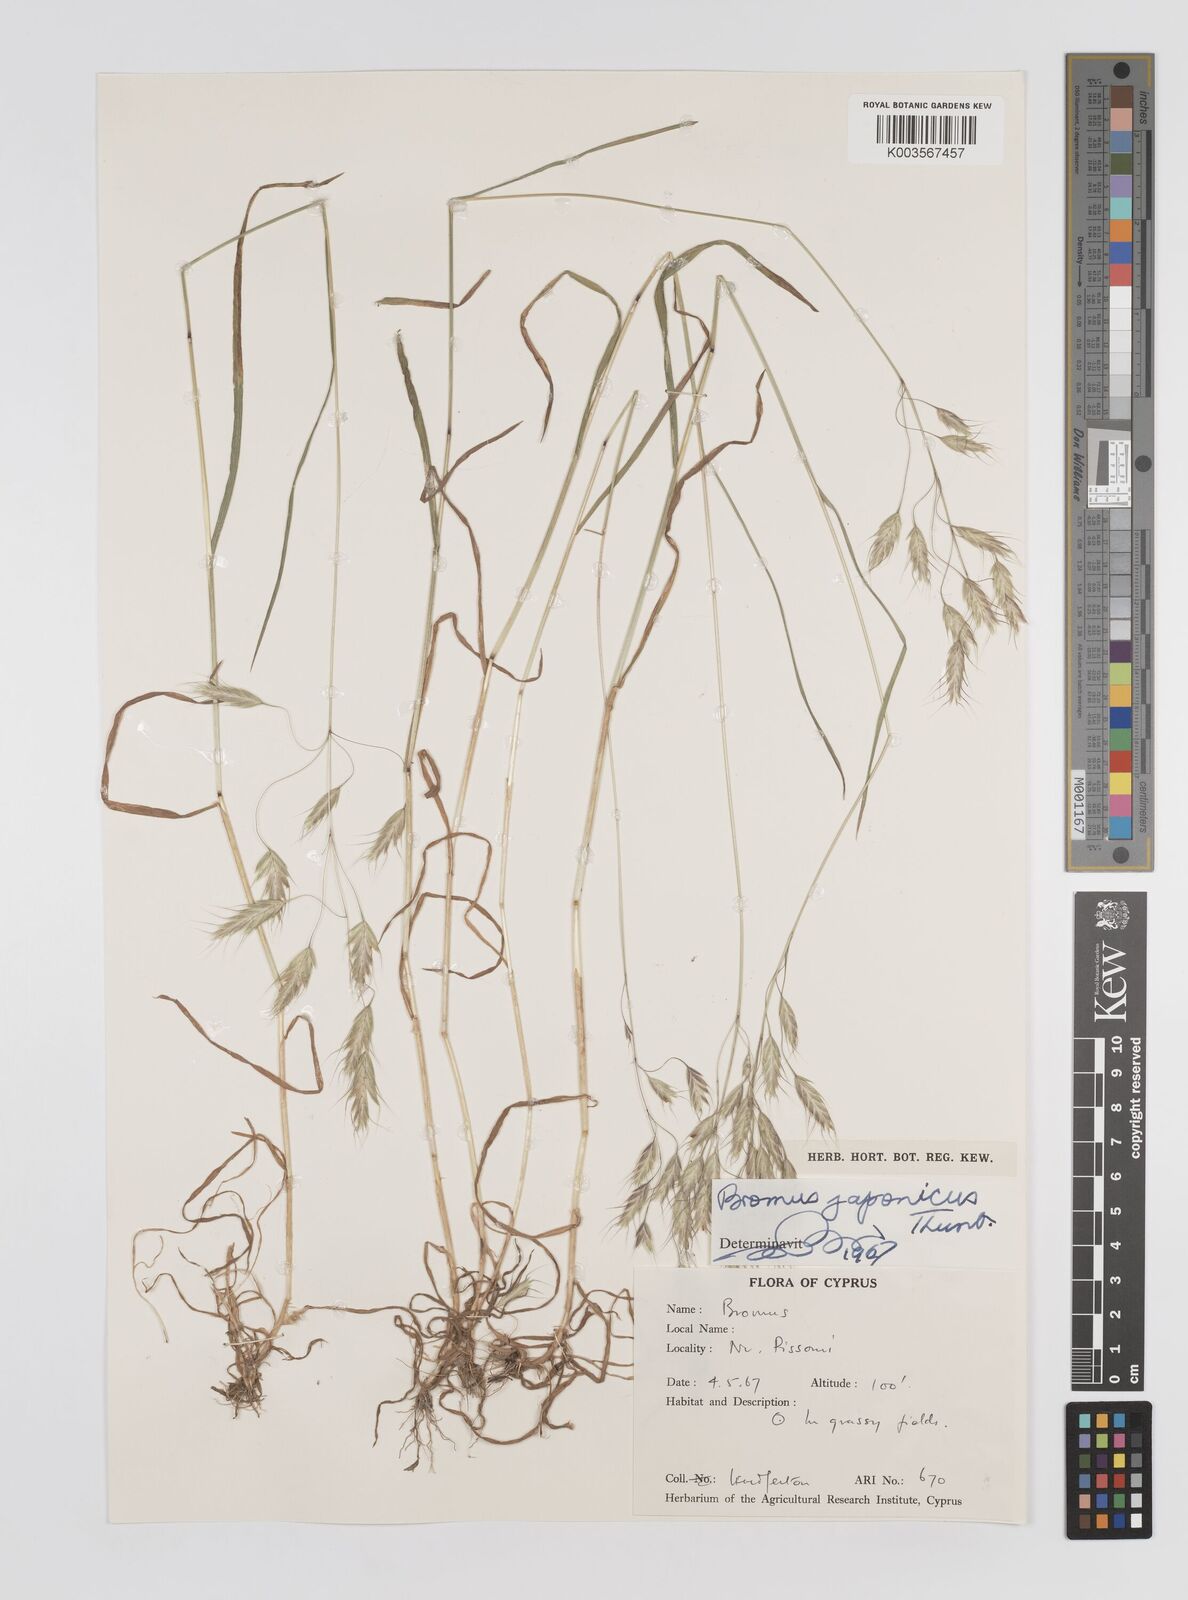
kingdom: Plantae
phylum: Tracheophyta
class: Liliopsida
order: Poales
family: Poaceae
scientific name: Poaceae
